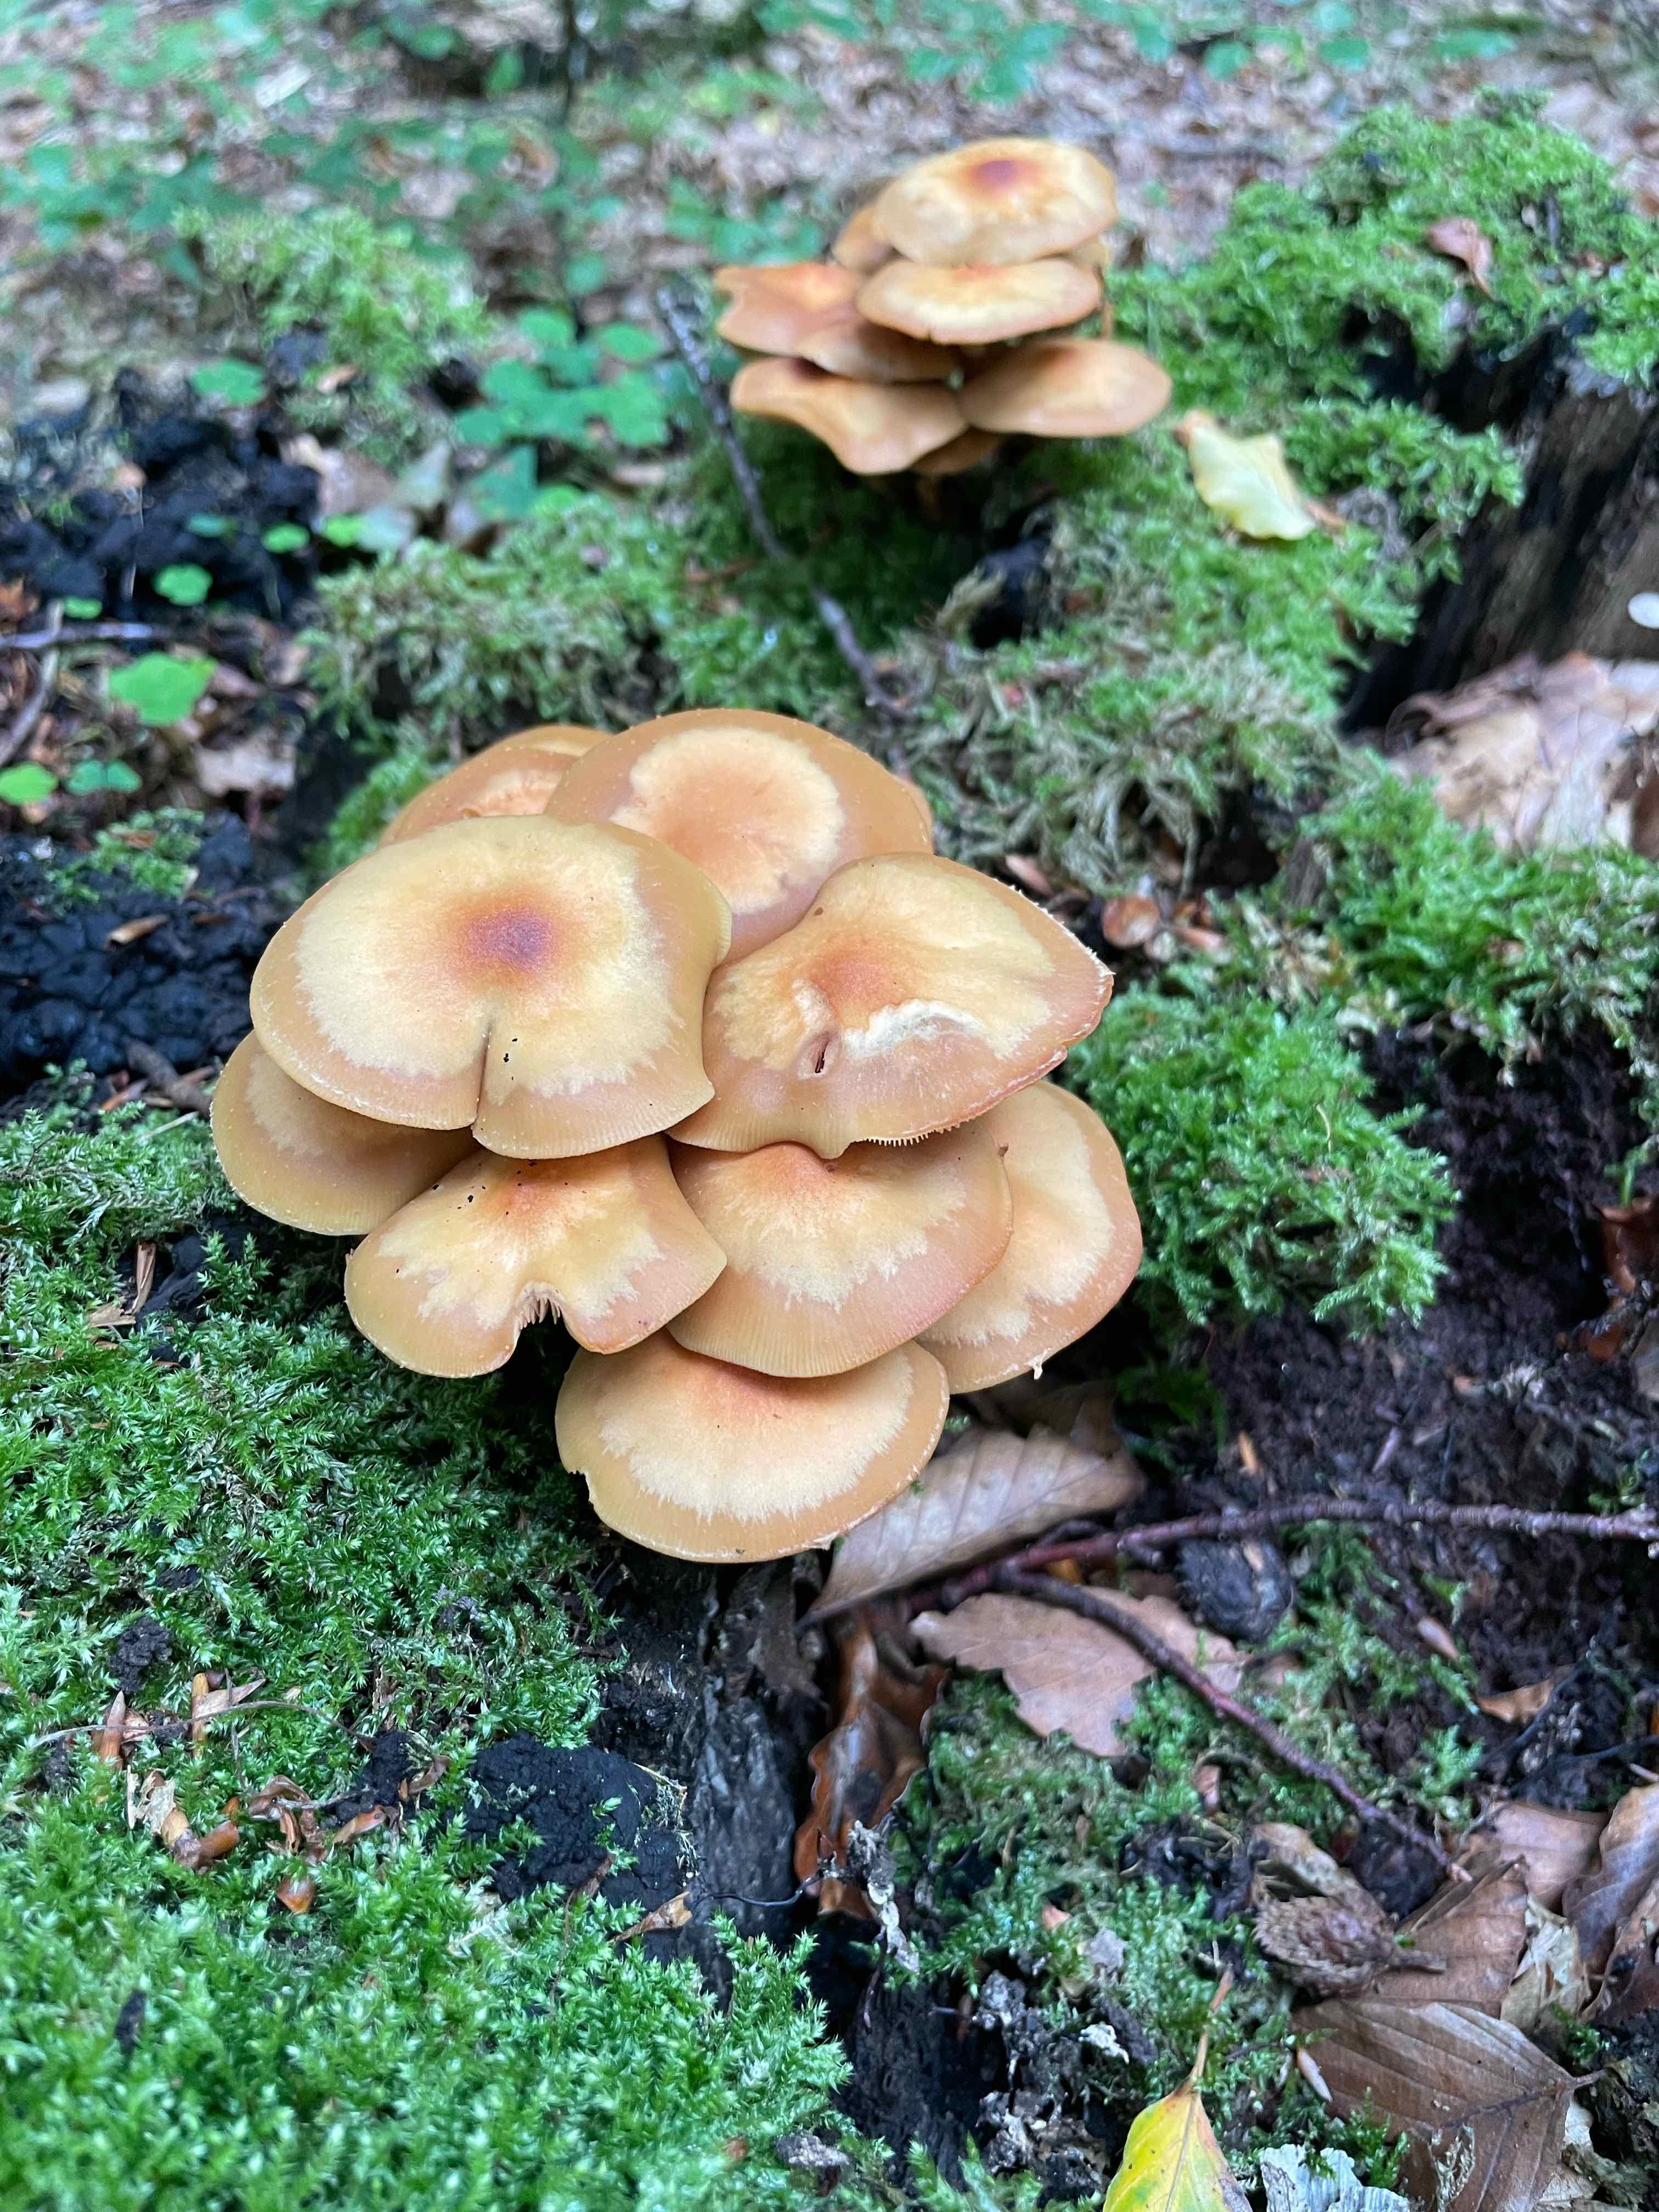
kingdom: Fungi
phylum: Basidiomycota
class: Agaricomycetes
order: Agaricales
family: Strophariaceae
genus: Kuehneromyces
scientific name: Kuehneromyces mutabilis
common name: foranderlig skælhat
